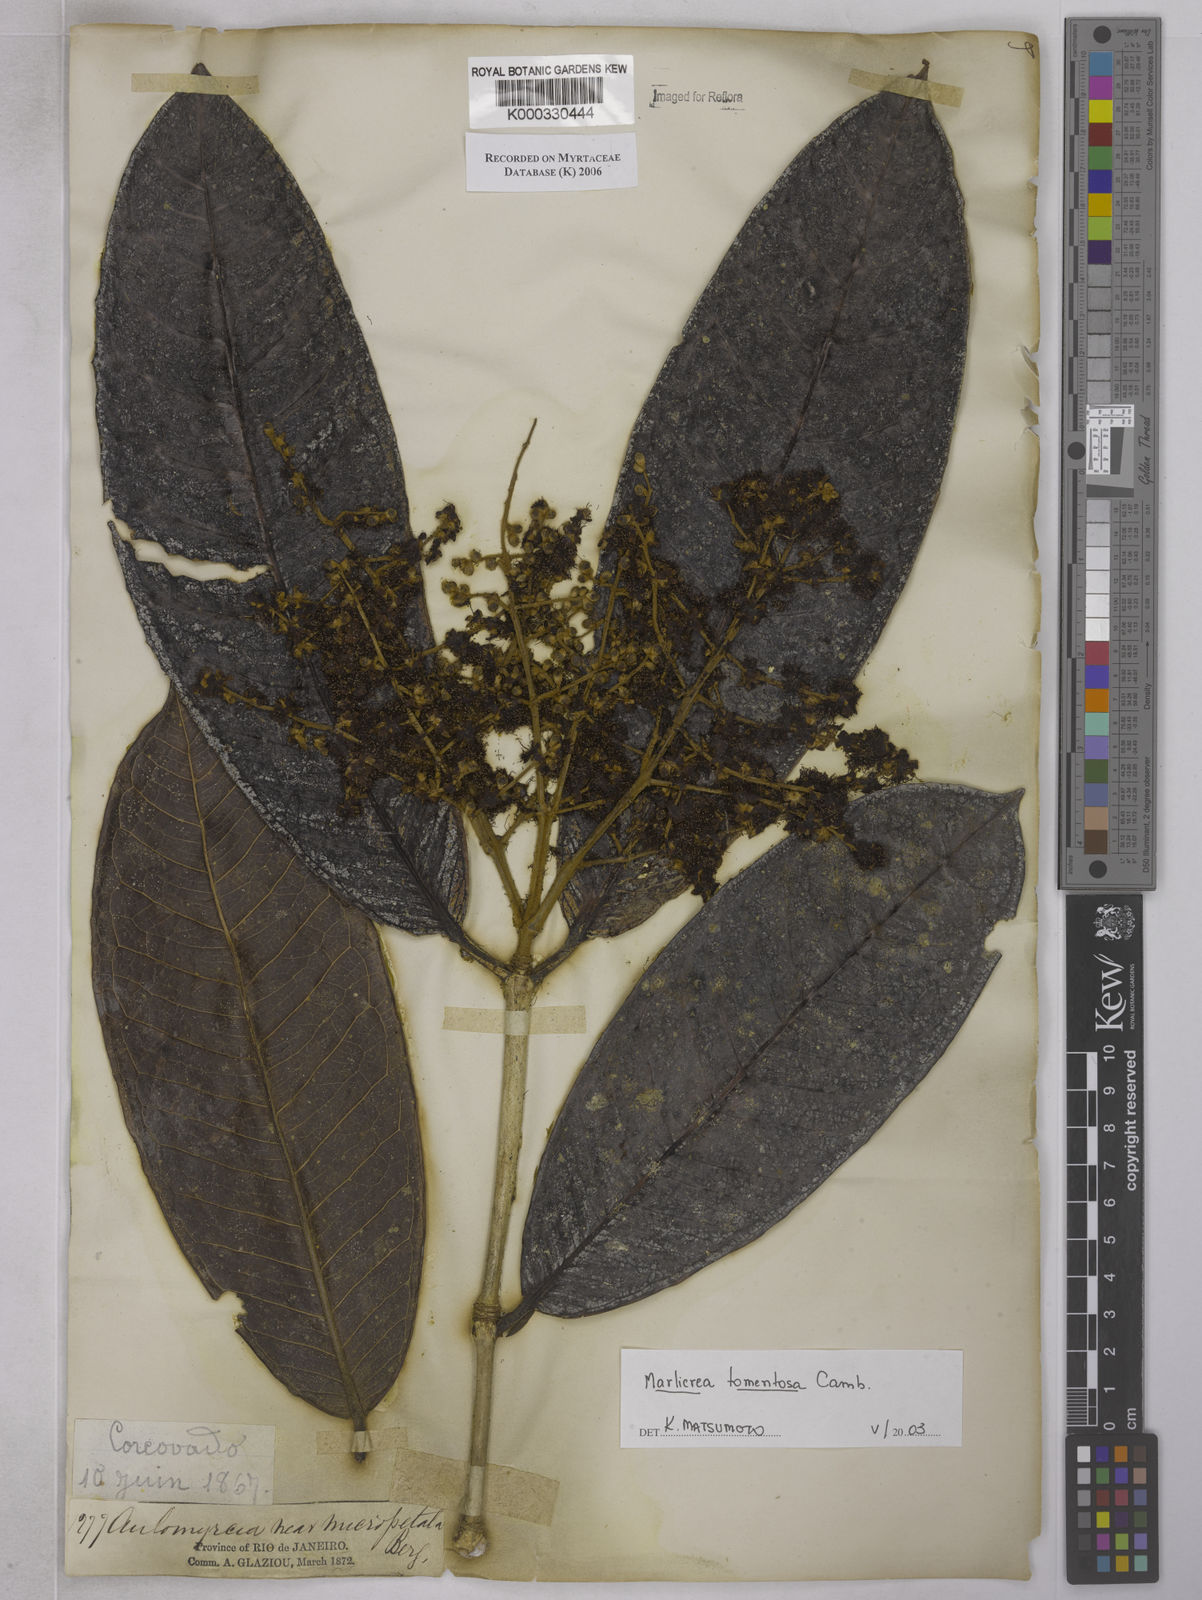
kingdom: Plantae
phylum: Tracheophyta
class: Magnoliopsida
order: Myrtales
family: Myrtaceae
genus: Myrcia
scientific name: Myrcia neotomentosa
